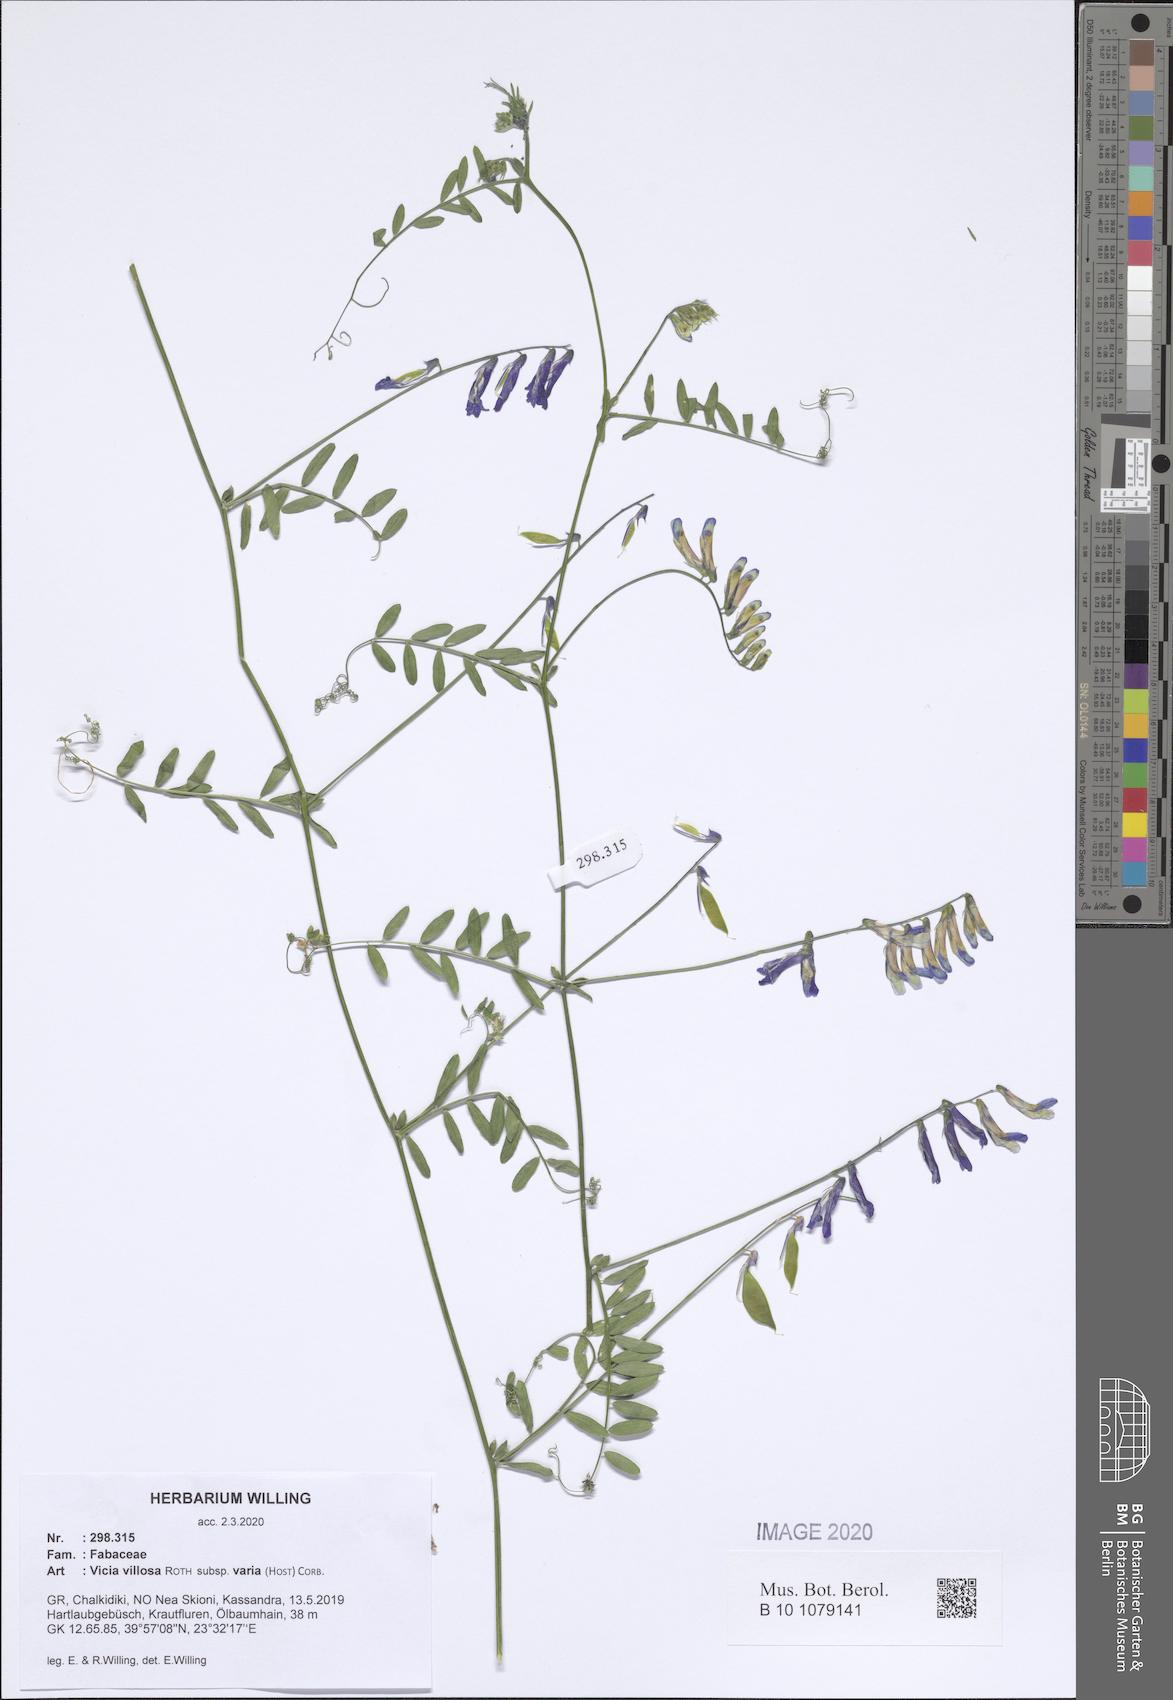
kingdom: Plantae
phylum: Tracheophyta
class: Magnoliopsida
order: Fabales
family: Fabaceae
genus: Vicia
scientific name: Vicia villosa
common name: Fodder vetch
